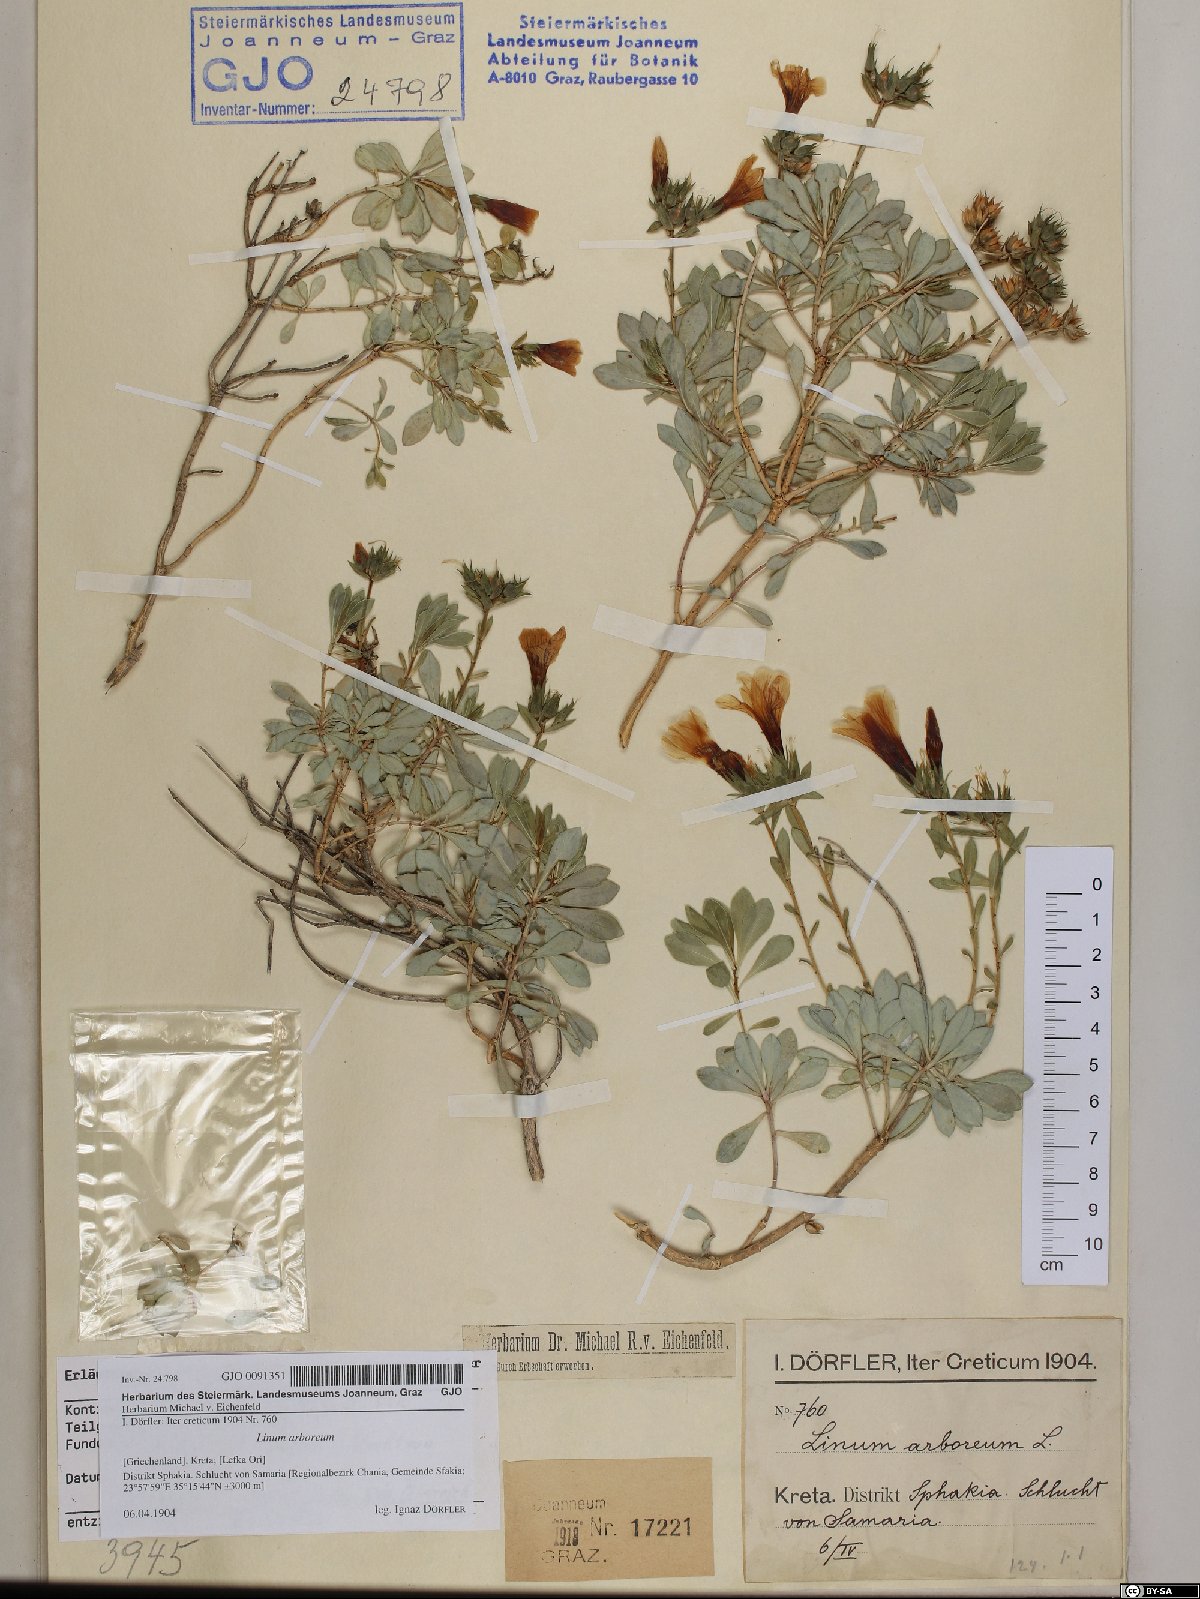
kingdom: Plantae
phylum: Tracheophyta
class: Magnoliopsida
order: Malpighiales
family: Linaceae
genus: Linum
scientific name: Linum arboreum
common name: Tree flax
